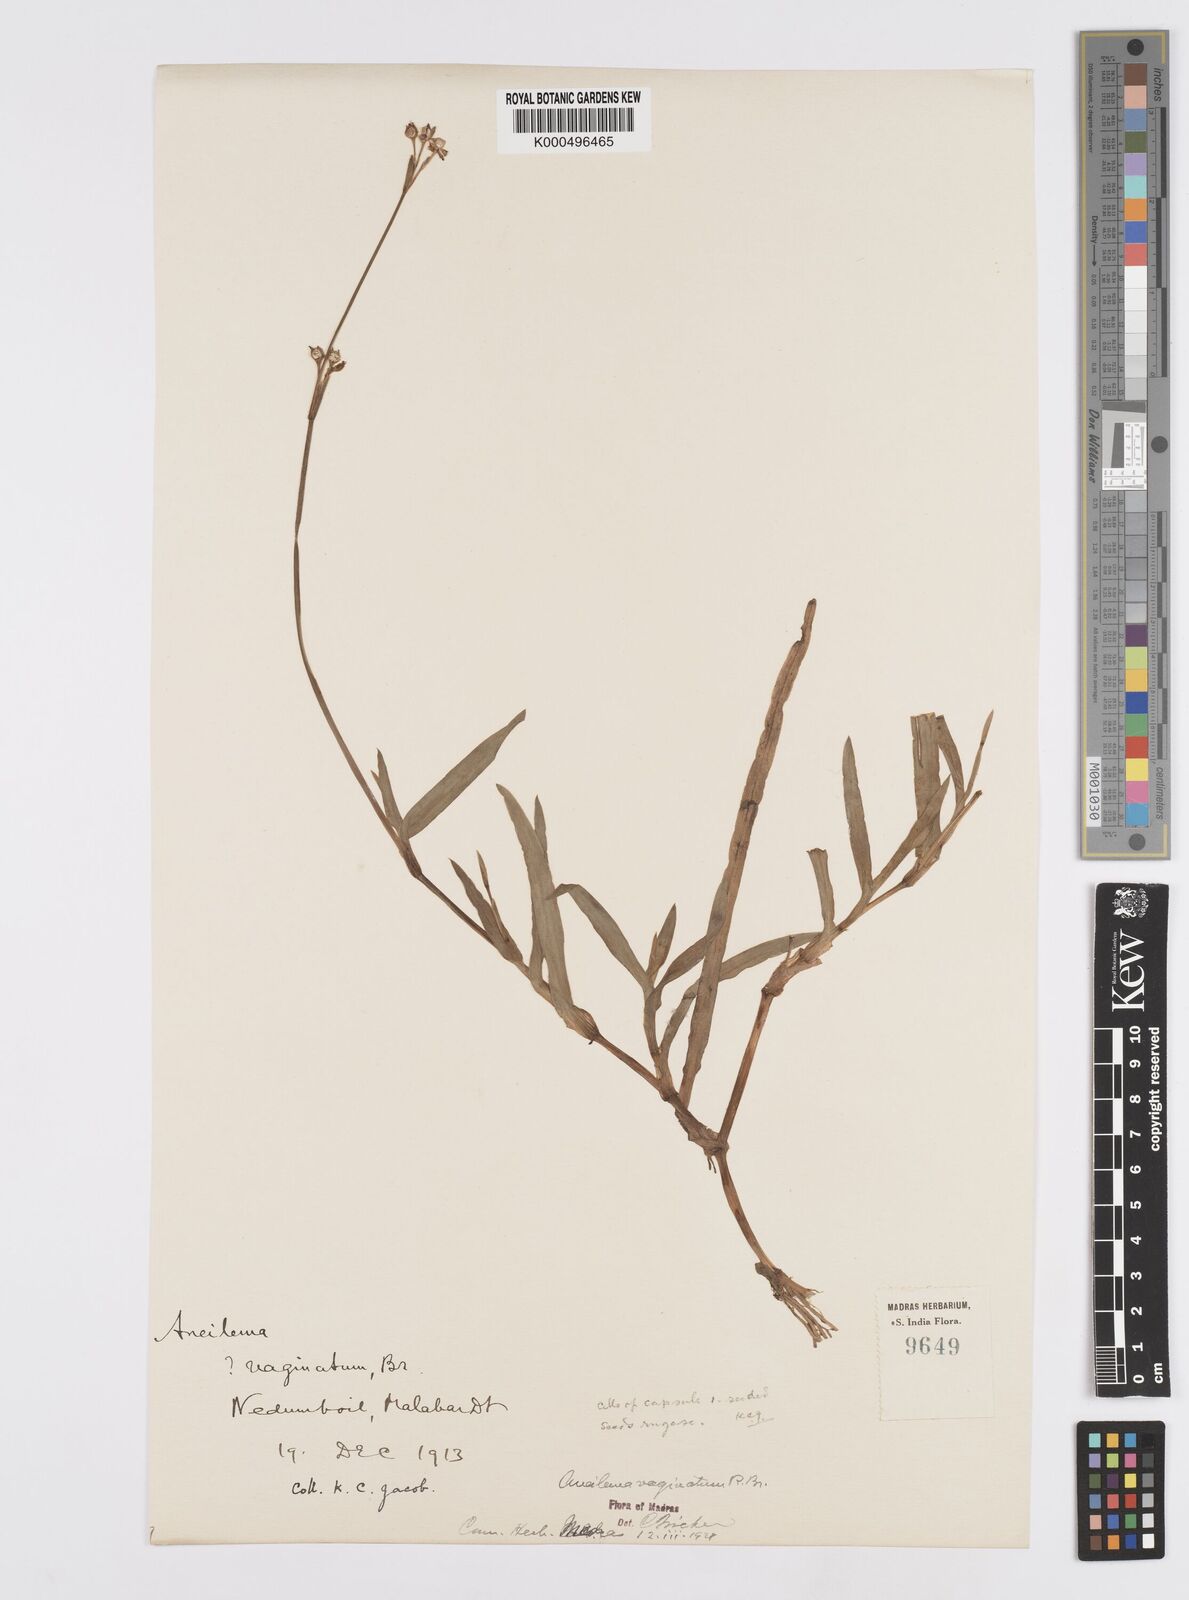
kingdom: Plantae
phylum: Tracheophyta
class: Liliopsida
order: Commelinales
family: Commelinaceae
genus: Murdannia
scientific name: Murdannia
